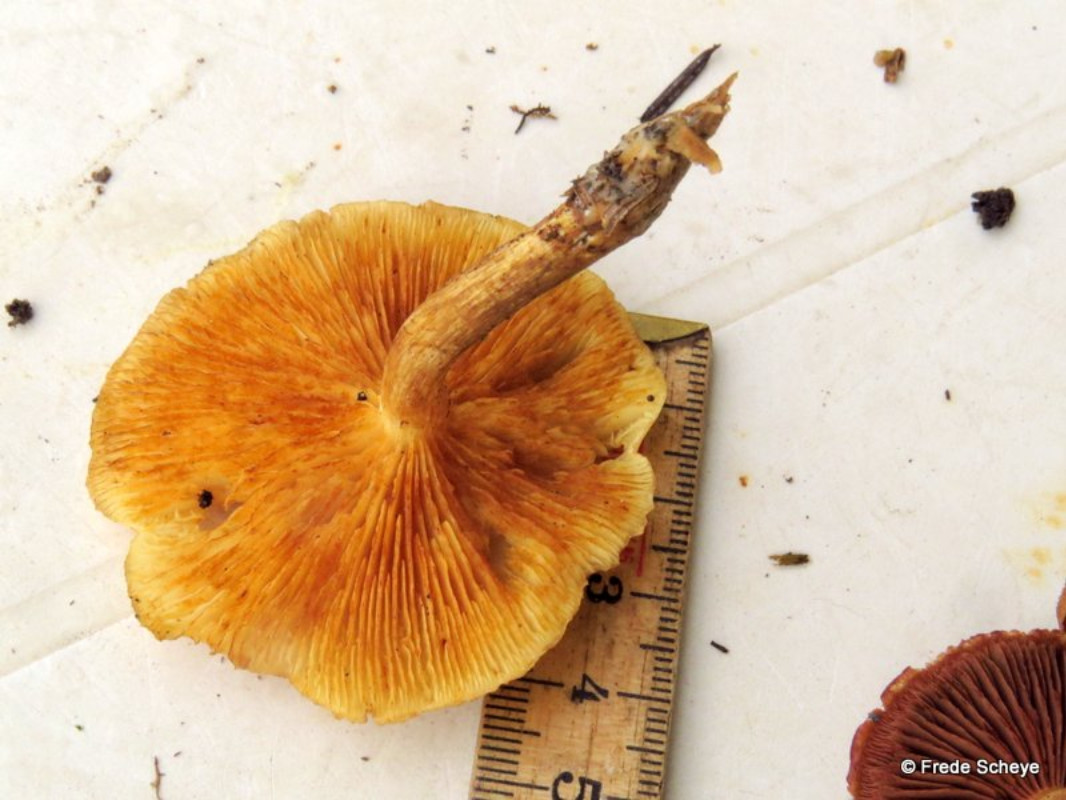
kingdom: Fungi
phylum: Basidiomycota
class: Agaricomycetes
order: Agaricales
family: Hymenogastraceae
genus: Gymnopilus
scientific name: Gymnopilus penetrans
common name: plettet flammehat
